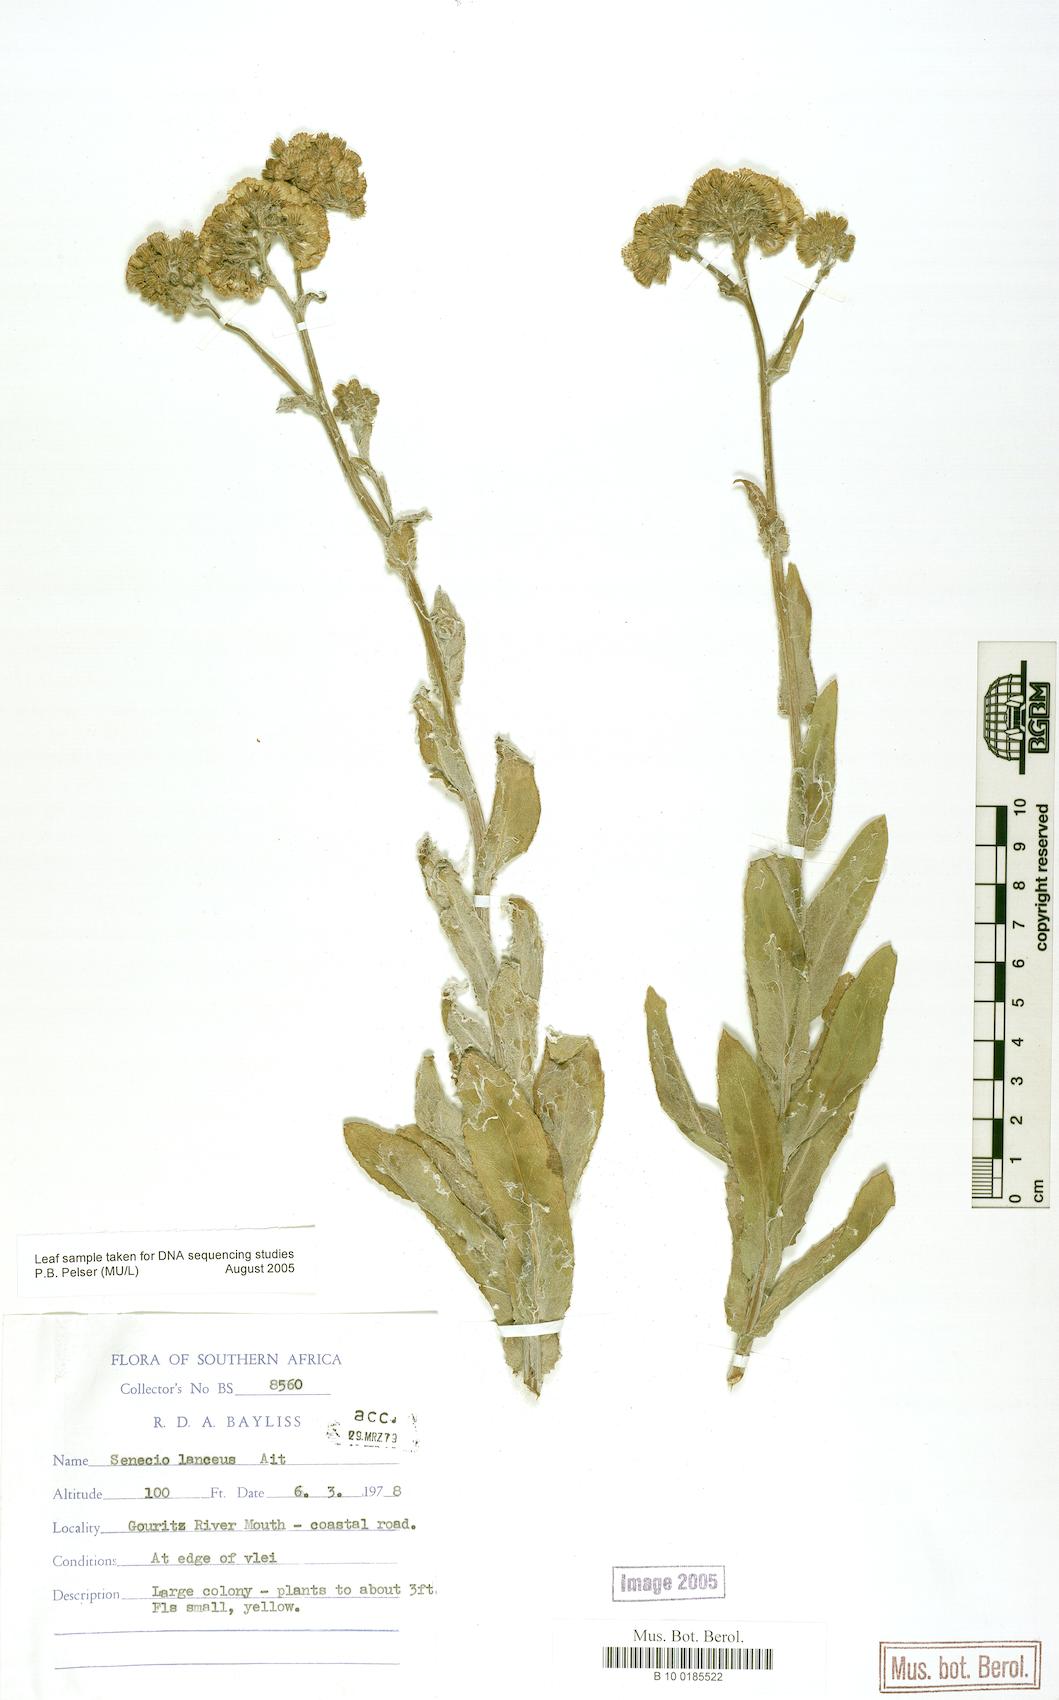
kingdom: Plantae
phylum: Tracheophyta
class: Magnoliopsida
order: Asterales
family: Asteraceae
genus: Senecio
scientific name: Senecio lanceus
